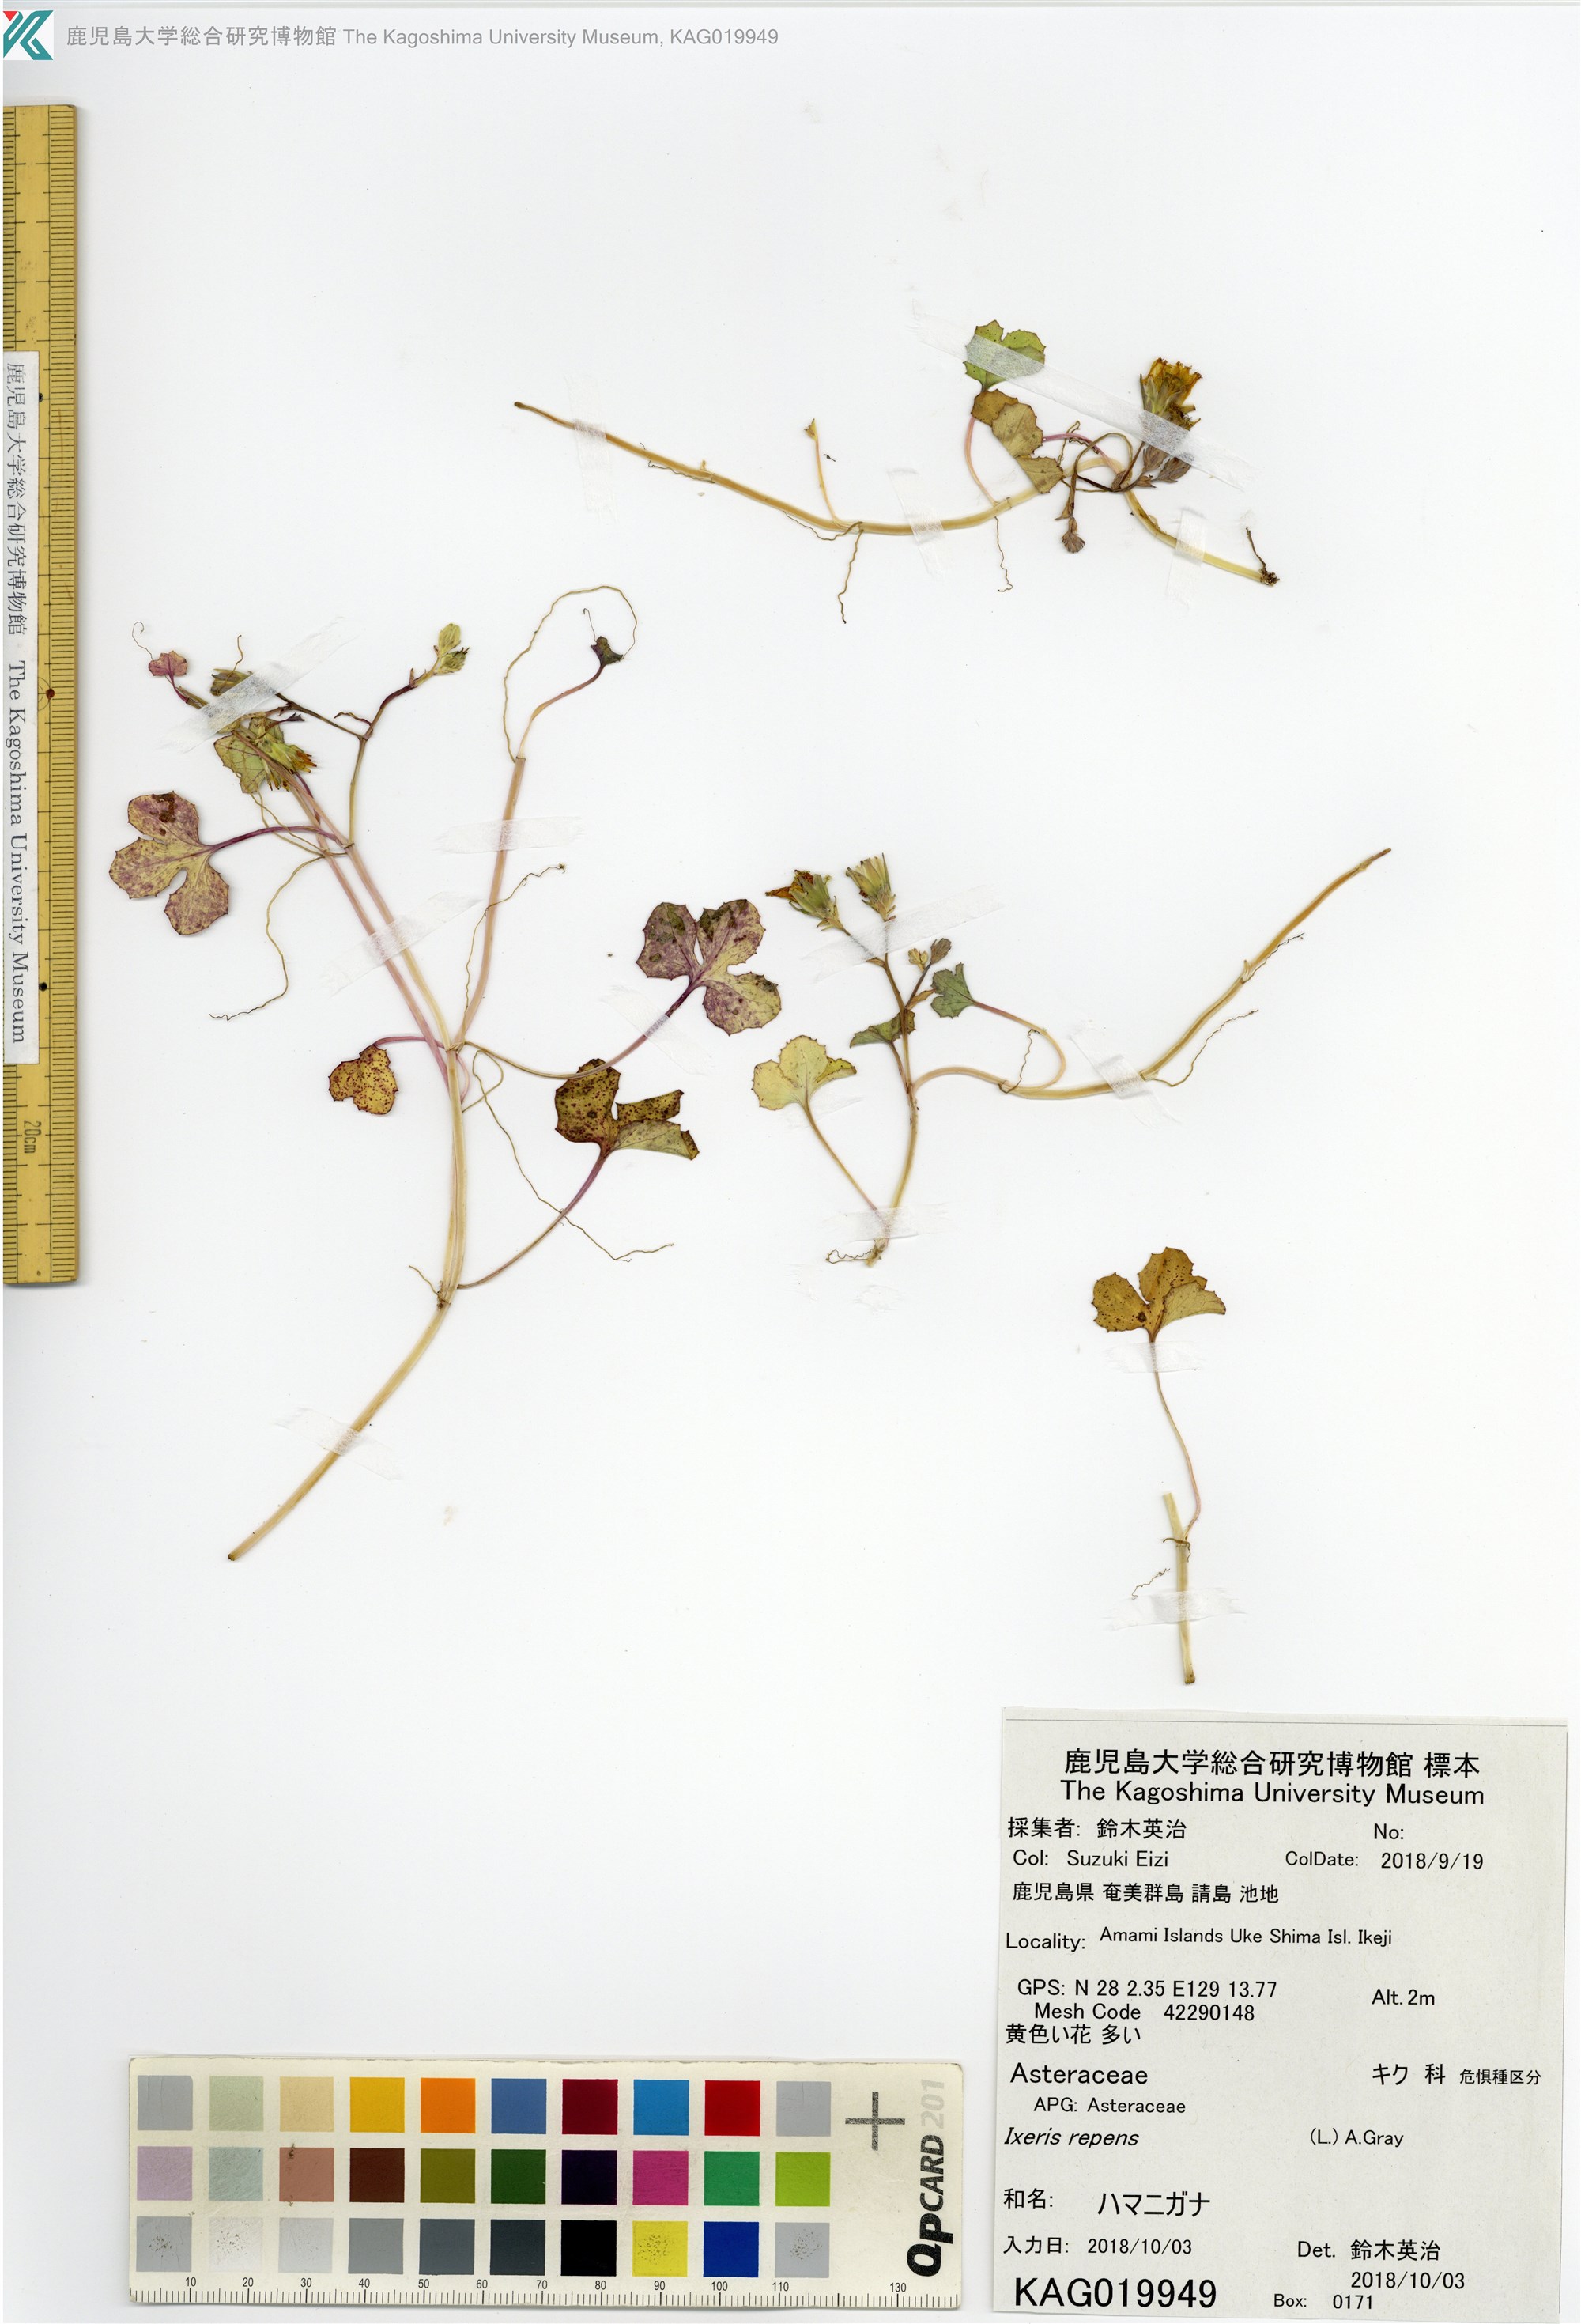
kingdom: Plantae
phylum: Tracheophyta
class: Magnoliopsida
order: Asterales
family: Asteraceae
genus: Ixeris
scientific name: Ixeris repens
